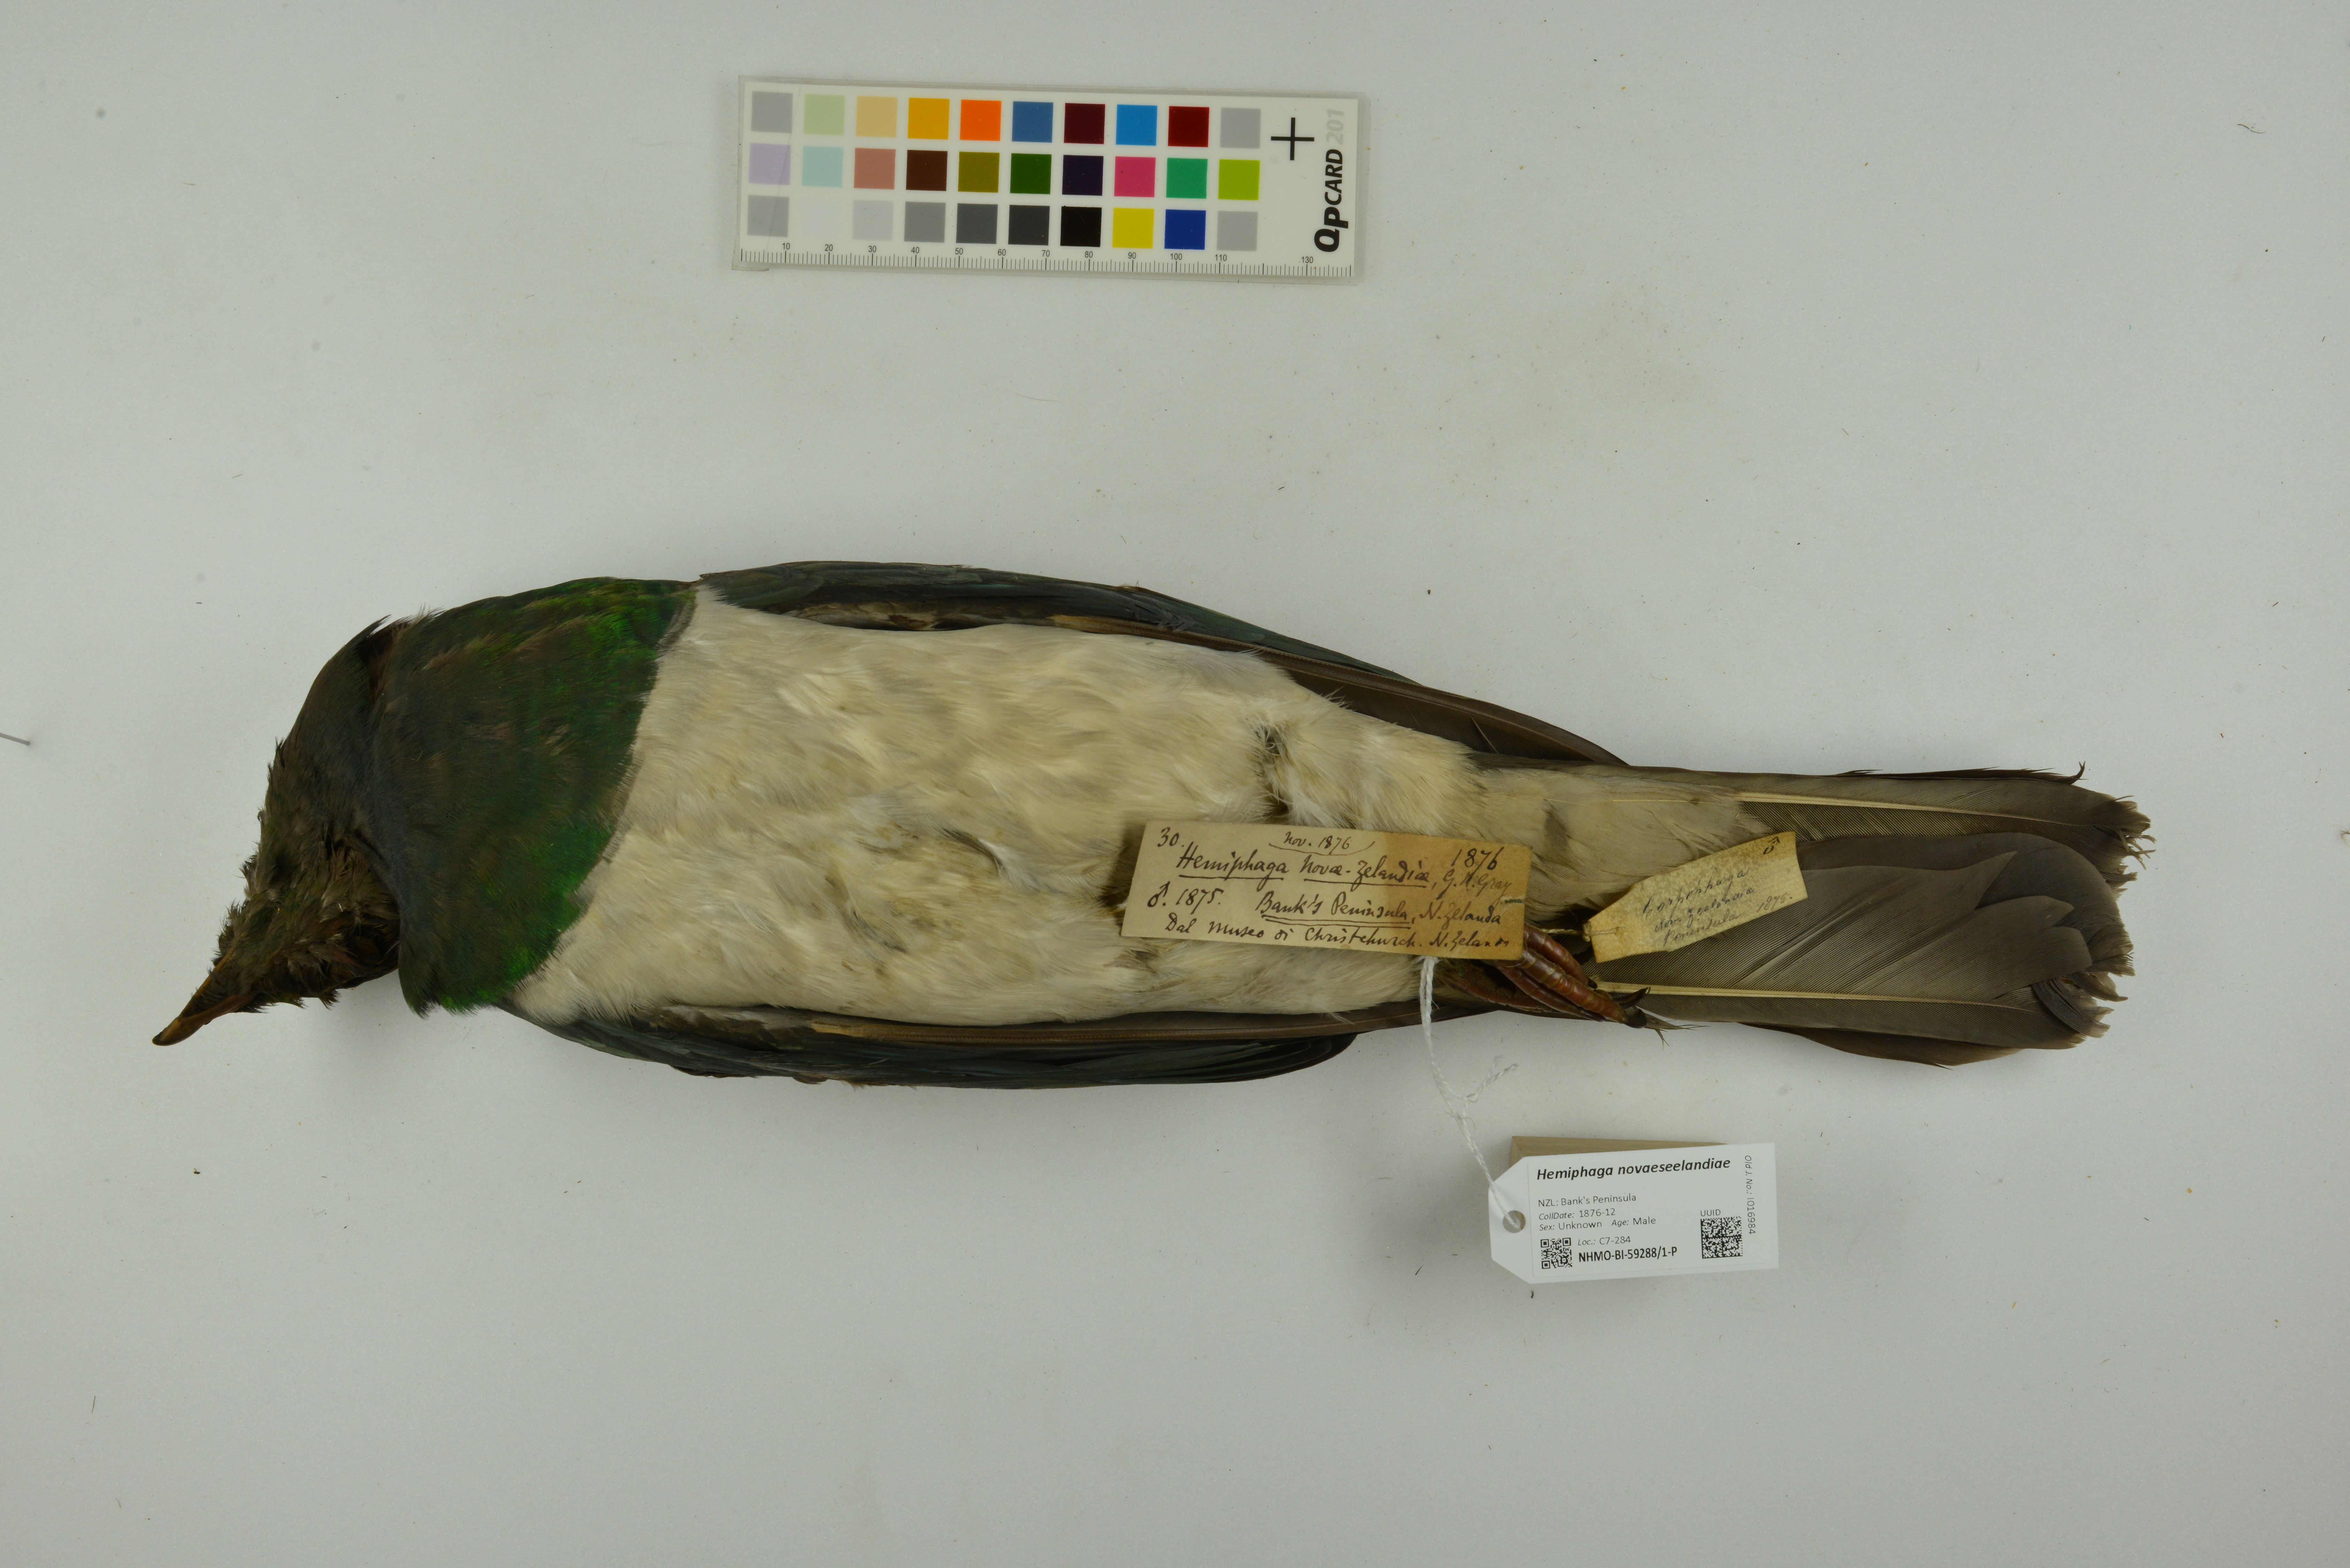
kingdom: Animalia
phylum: Chordata
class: Aves
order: Columbiformes
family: Columbidae
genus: Hemiphaga
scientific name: Hemiphaga novaeseelandiae
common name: New zealand pigeon
